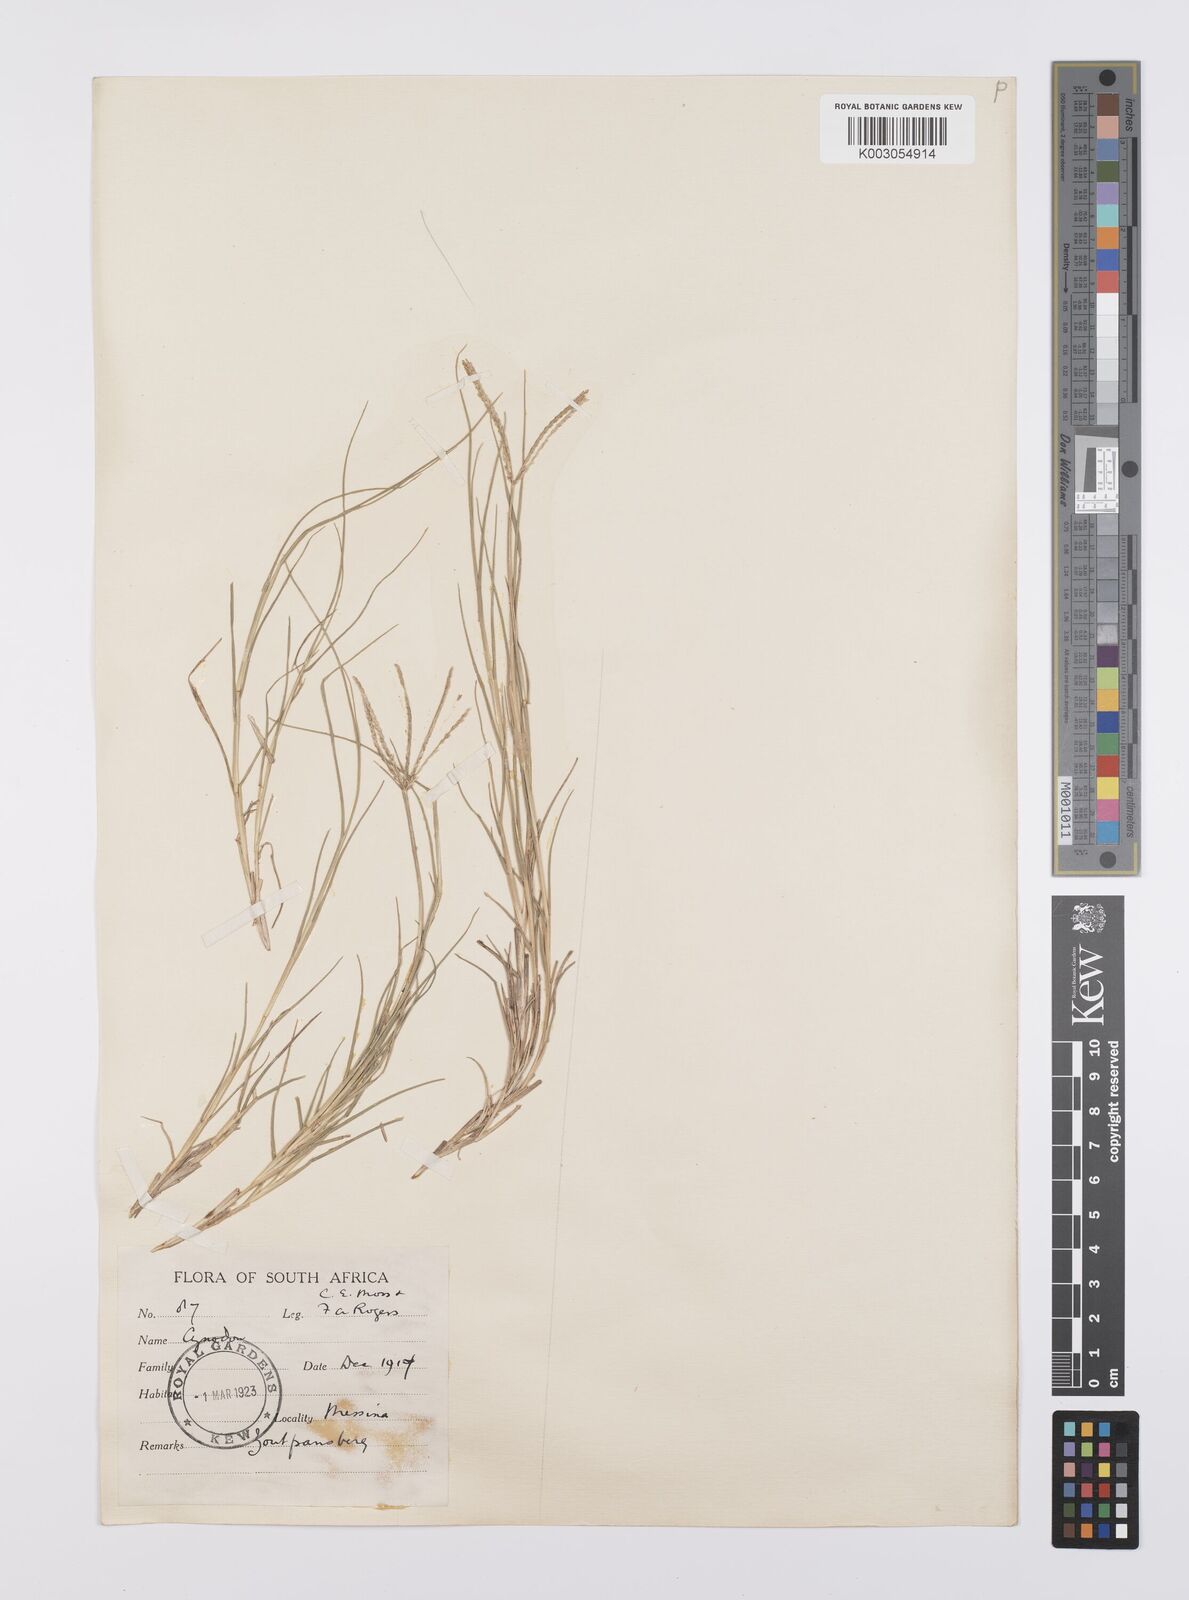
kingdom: Plantae
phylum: Tracheophyta
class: Liliopsida
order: Poales
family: Poaceae
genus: Cynodon
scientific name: Cynodon dactylon
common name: Bermuda grass
